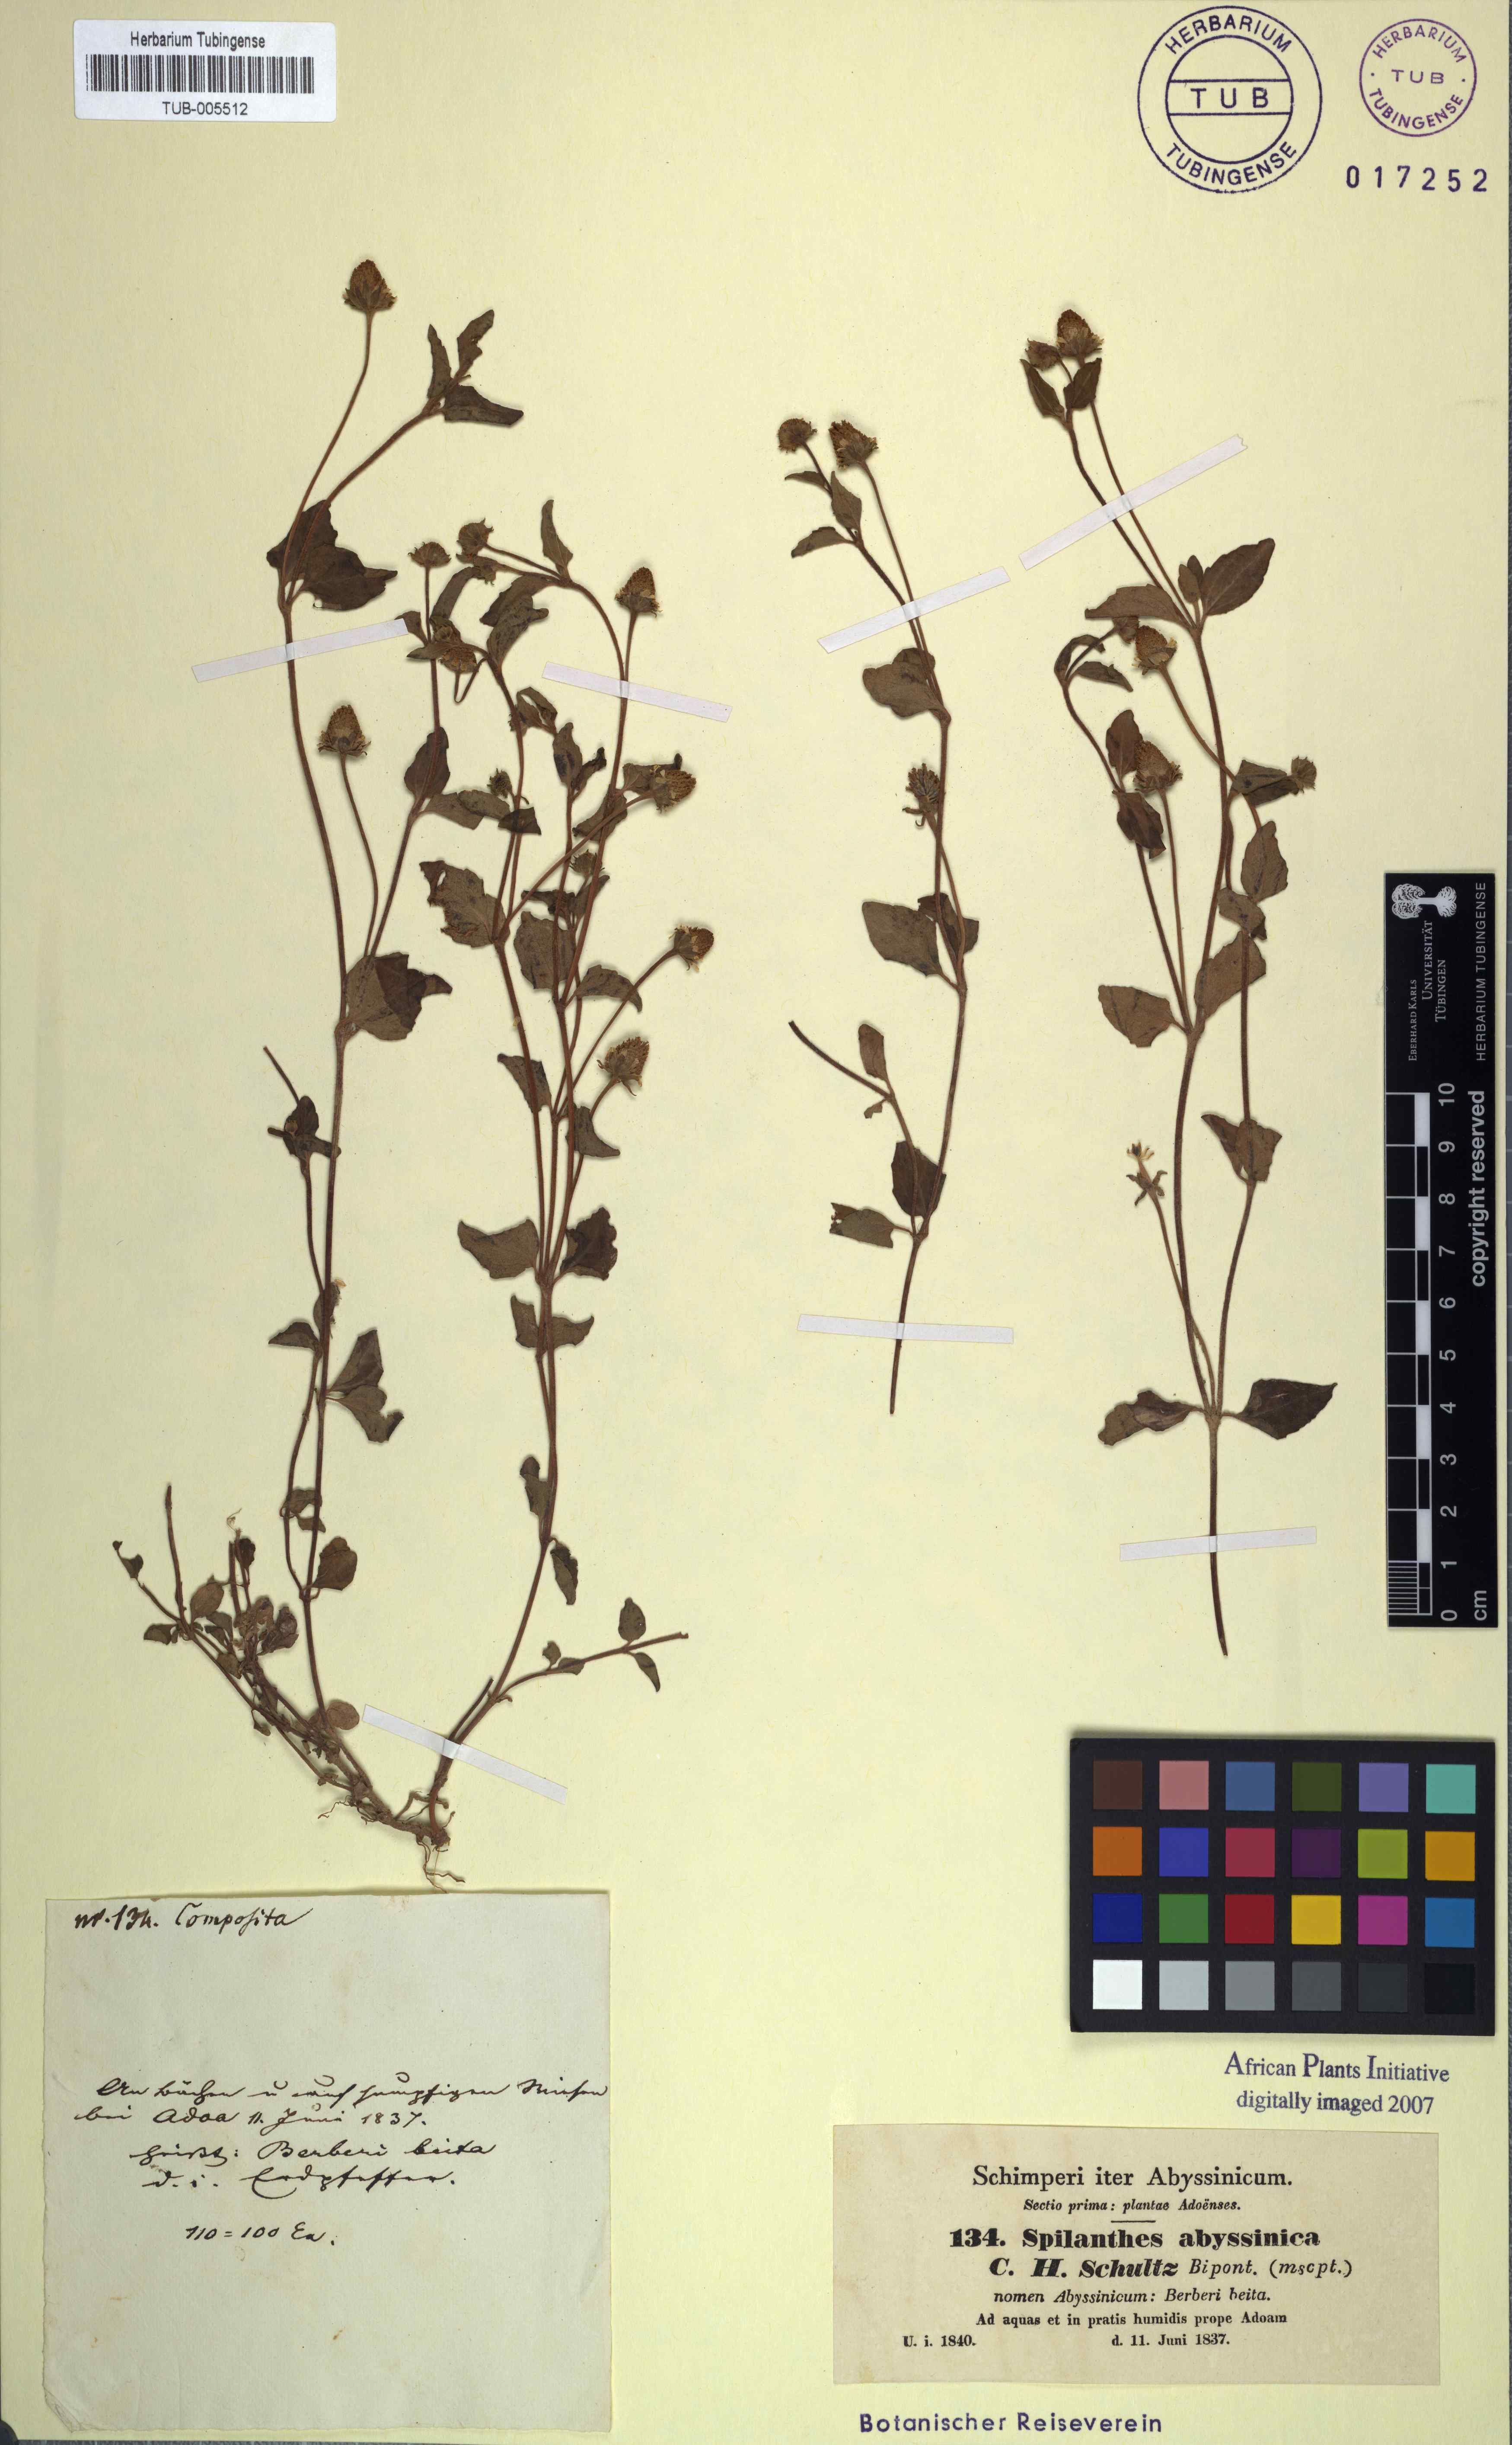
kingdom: Plantae
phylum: Tracheophyta
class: Magnoliopsida
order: Asterales
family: Asteraceae
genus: Blainvillea
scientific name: Blainvillea acmella
